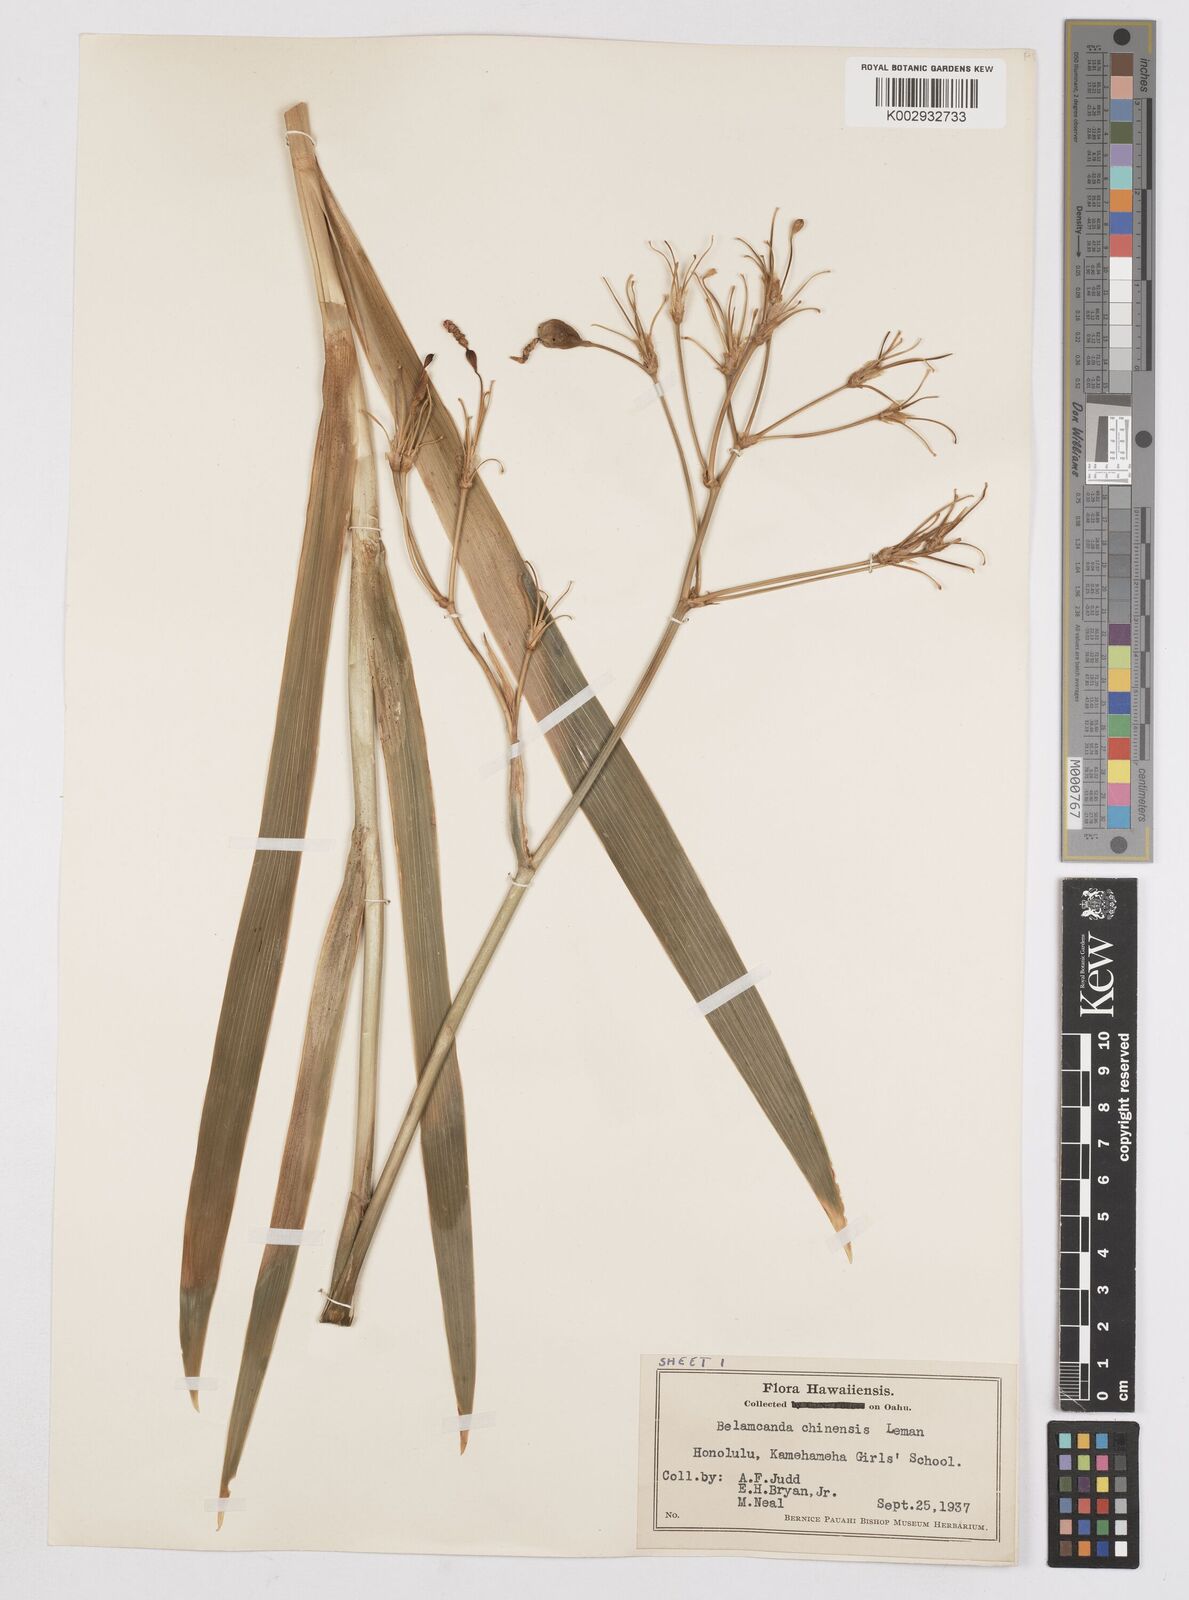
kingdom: Plantae
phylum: Tracheophyta
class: Liliopsida
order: Asparagales
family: Iridaceae
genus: Iris
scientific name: Iris
